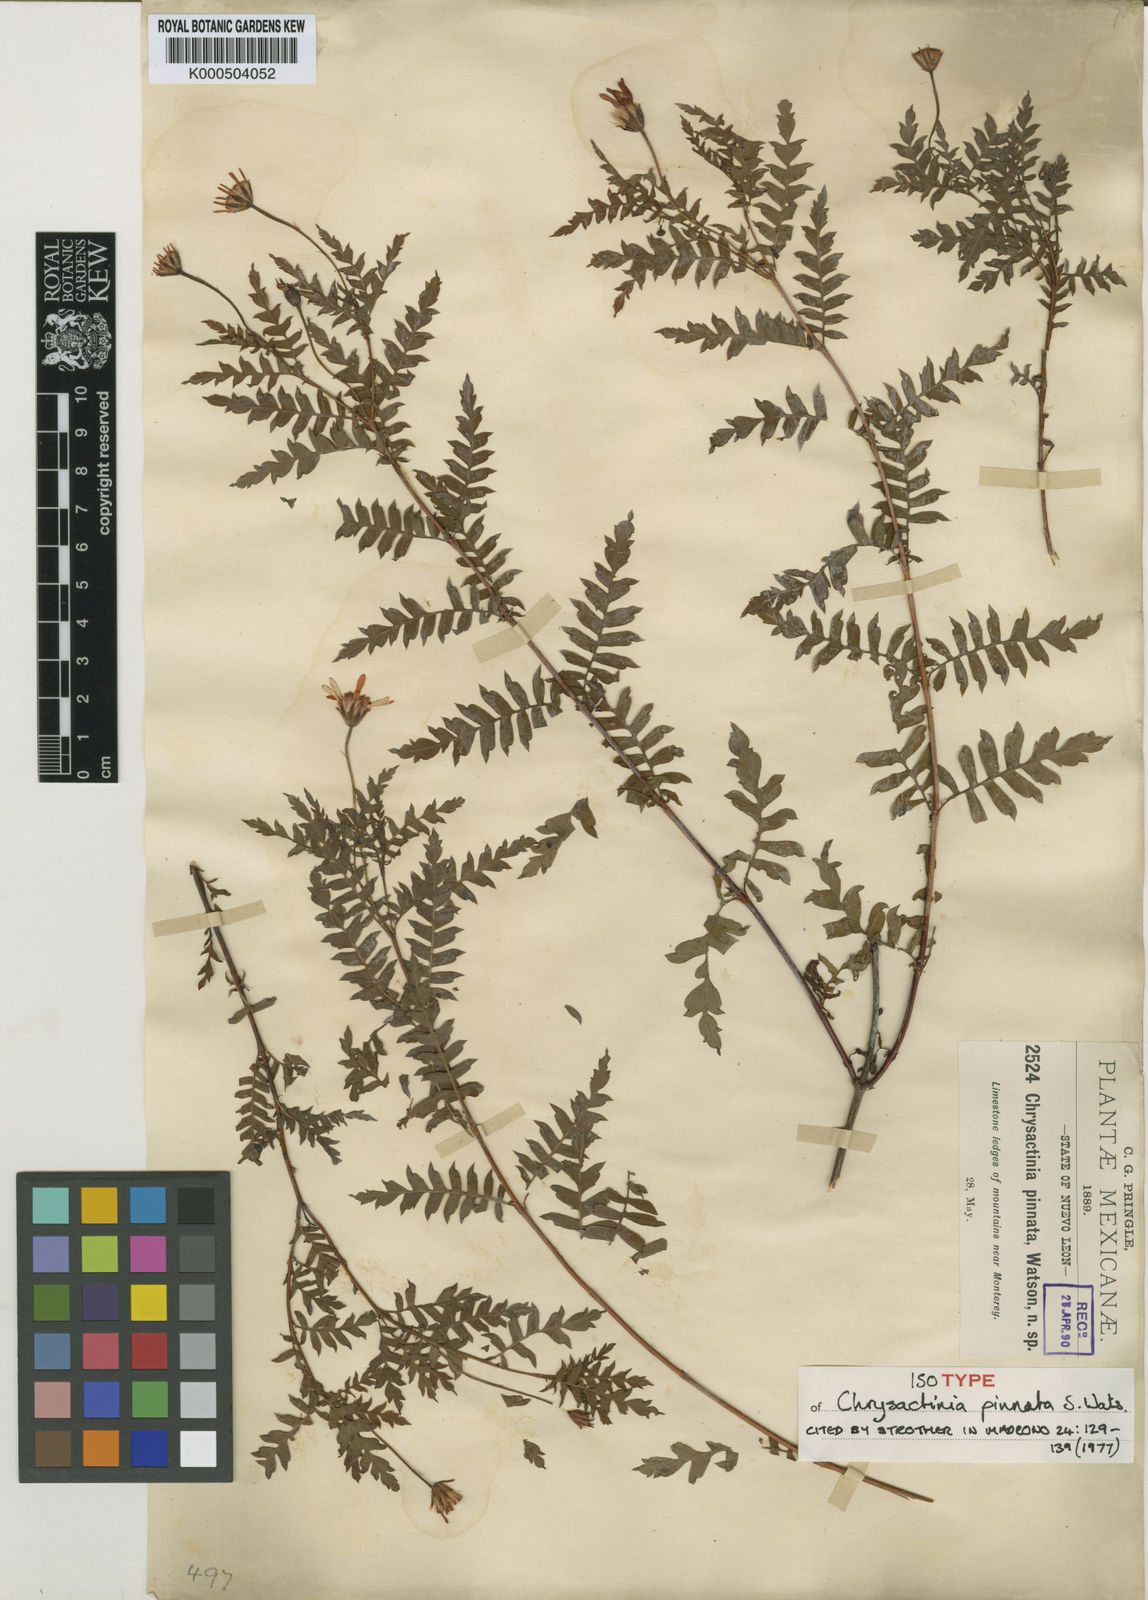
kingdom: Plantae
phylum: Tracheophyta
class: Magnoliopsida
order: Asterales
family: Asteraceae
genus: Chrysactinia
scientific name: Chrysactinia pinnata
